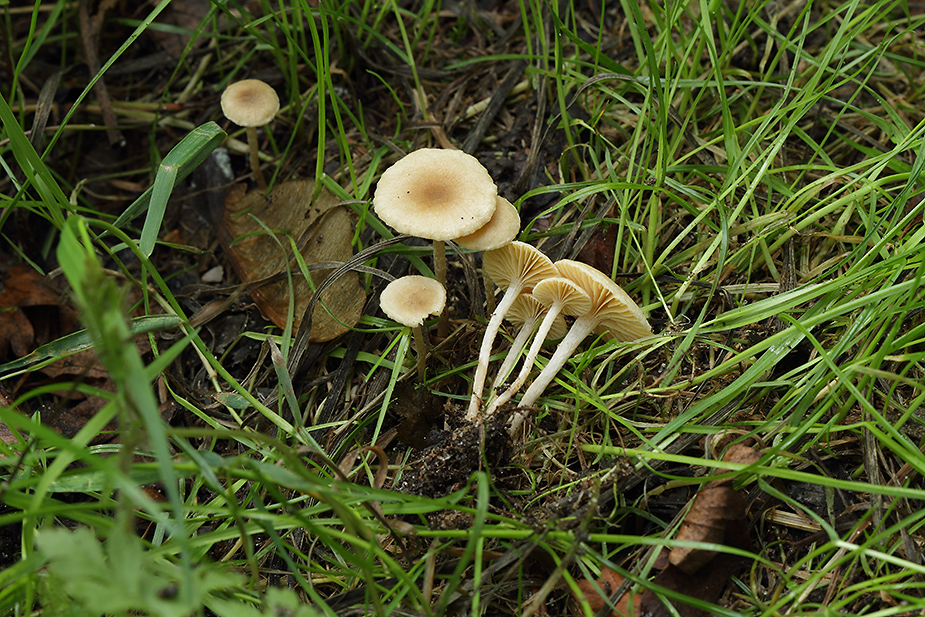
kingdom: Fungi
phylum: Basidiomycota
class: Agaricomycetes
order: Agaricales
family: Tubariaceae
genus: Tubaria
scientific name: Tubaria dispersa
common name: tjørne-fnughat
